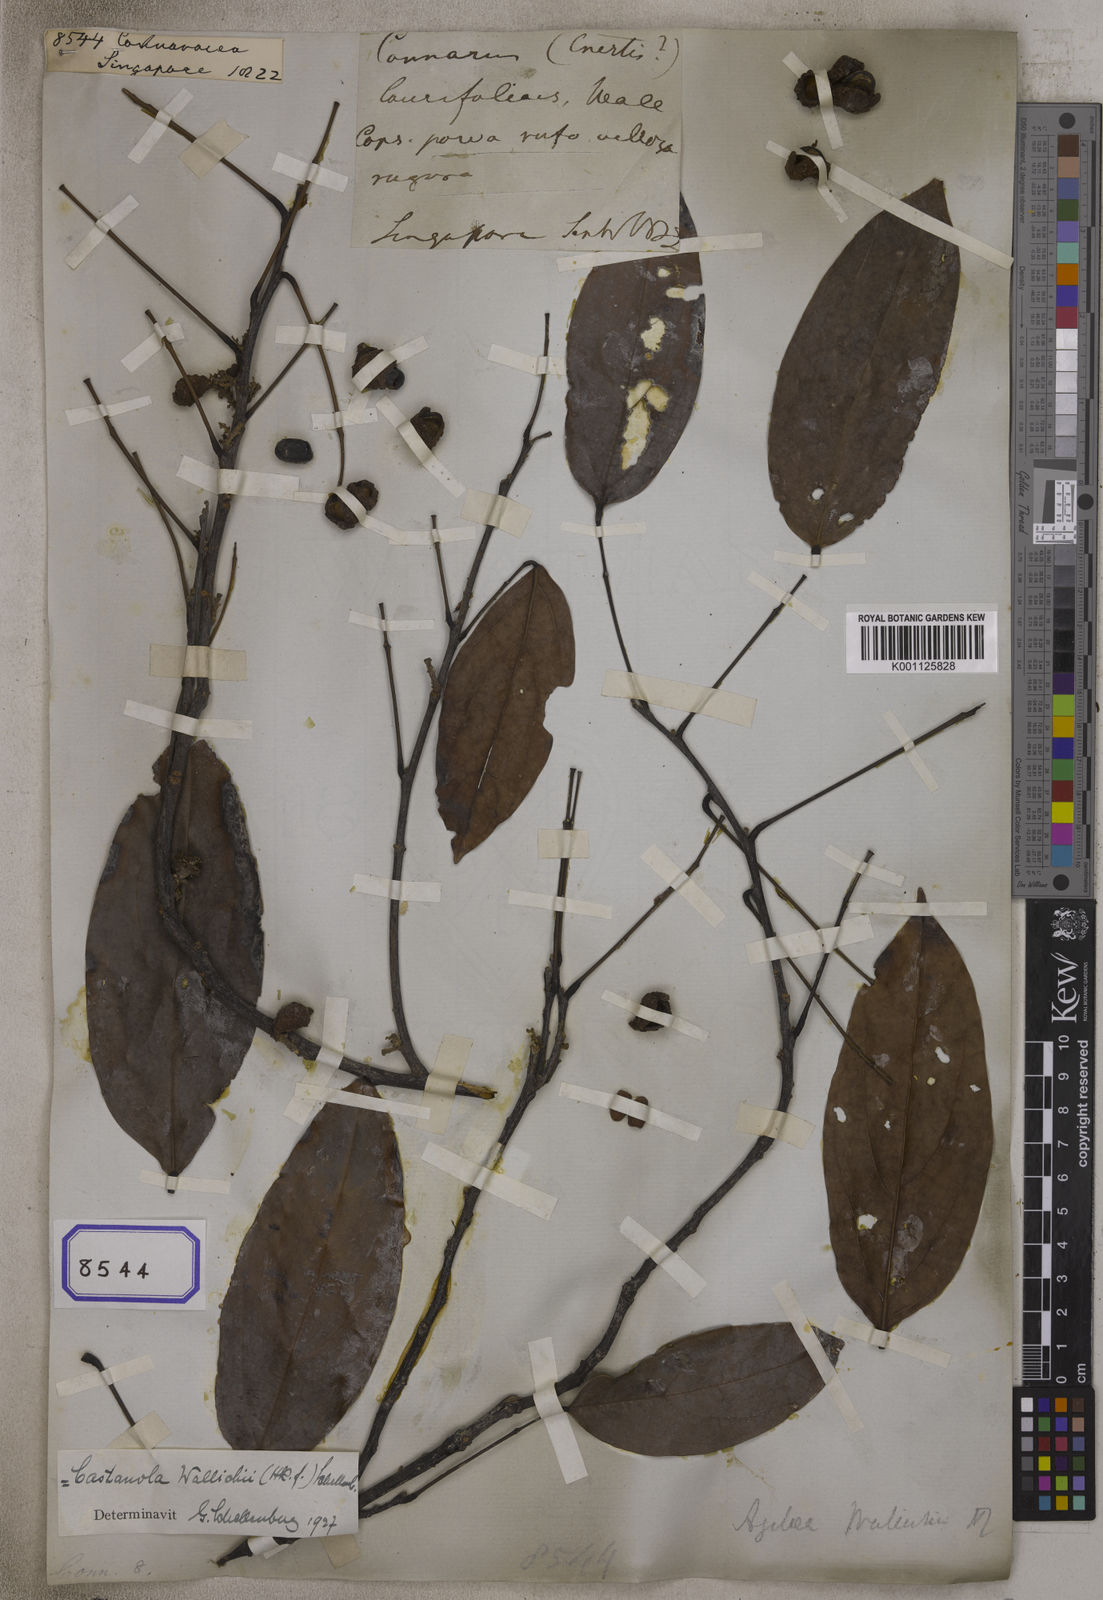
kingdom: Plantae
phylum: Tracheophyta
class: Magnoliopsida
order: Oxalidales
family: Connaraceae
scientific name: Connaraceae
